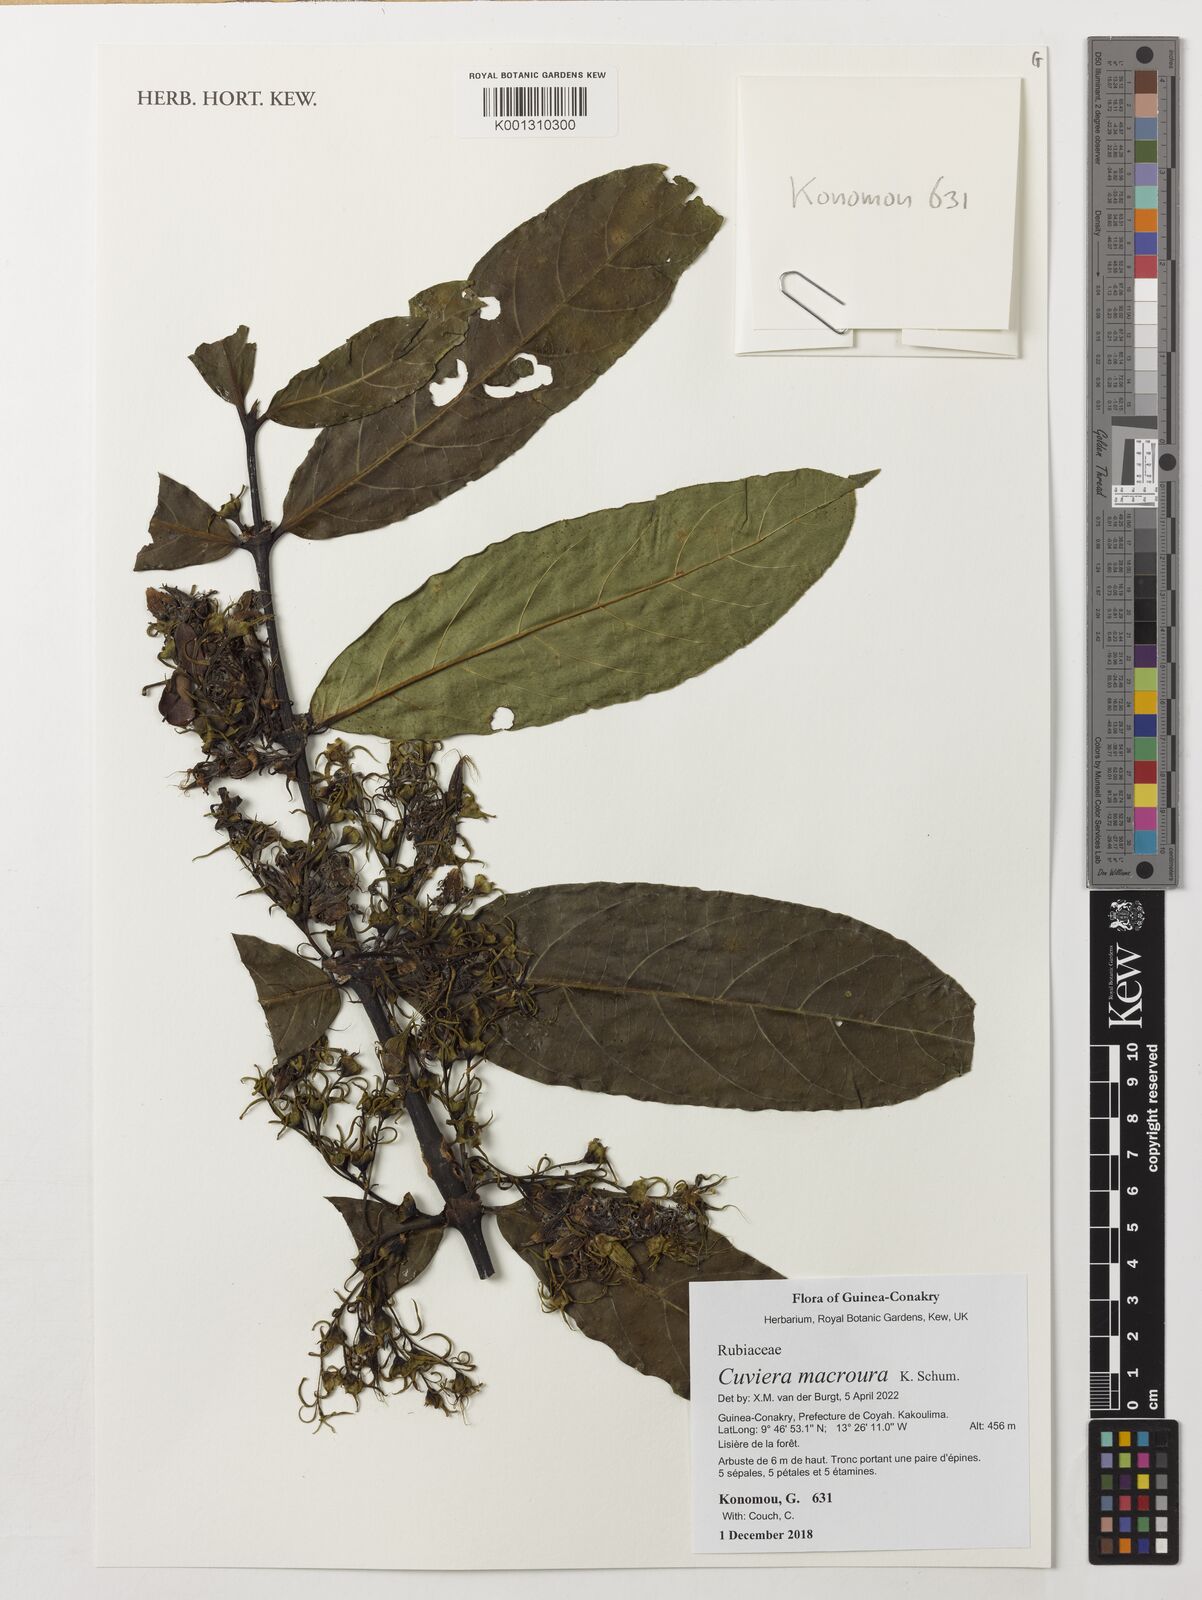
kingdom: Plantae
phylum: Tracheophyta
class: Magnoliopsida
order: Gentianales
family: Rubiaceae
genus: Cuviera
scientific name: Cuviera macroura
